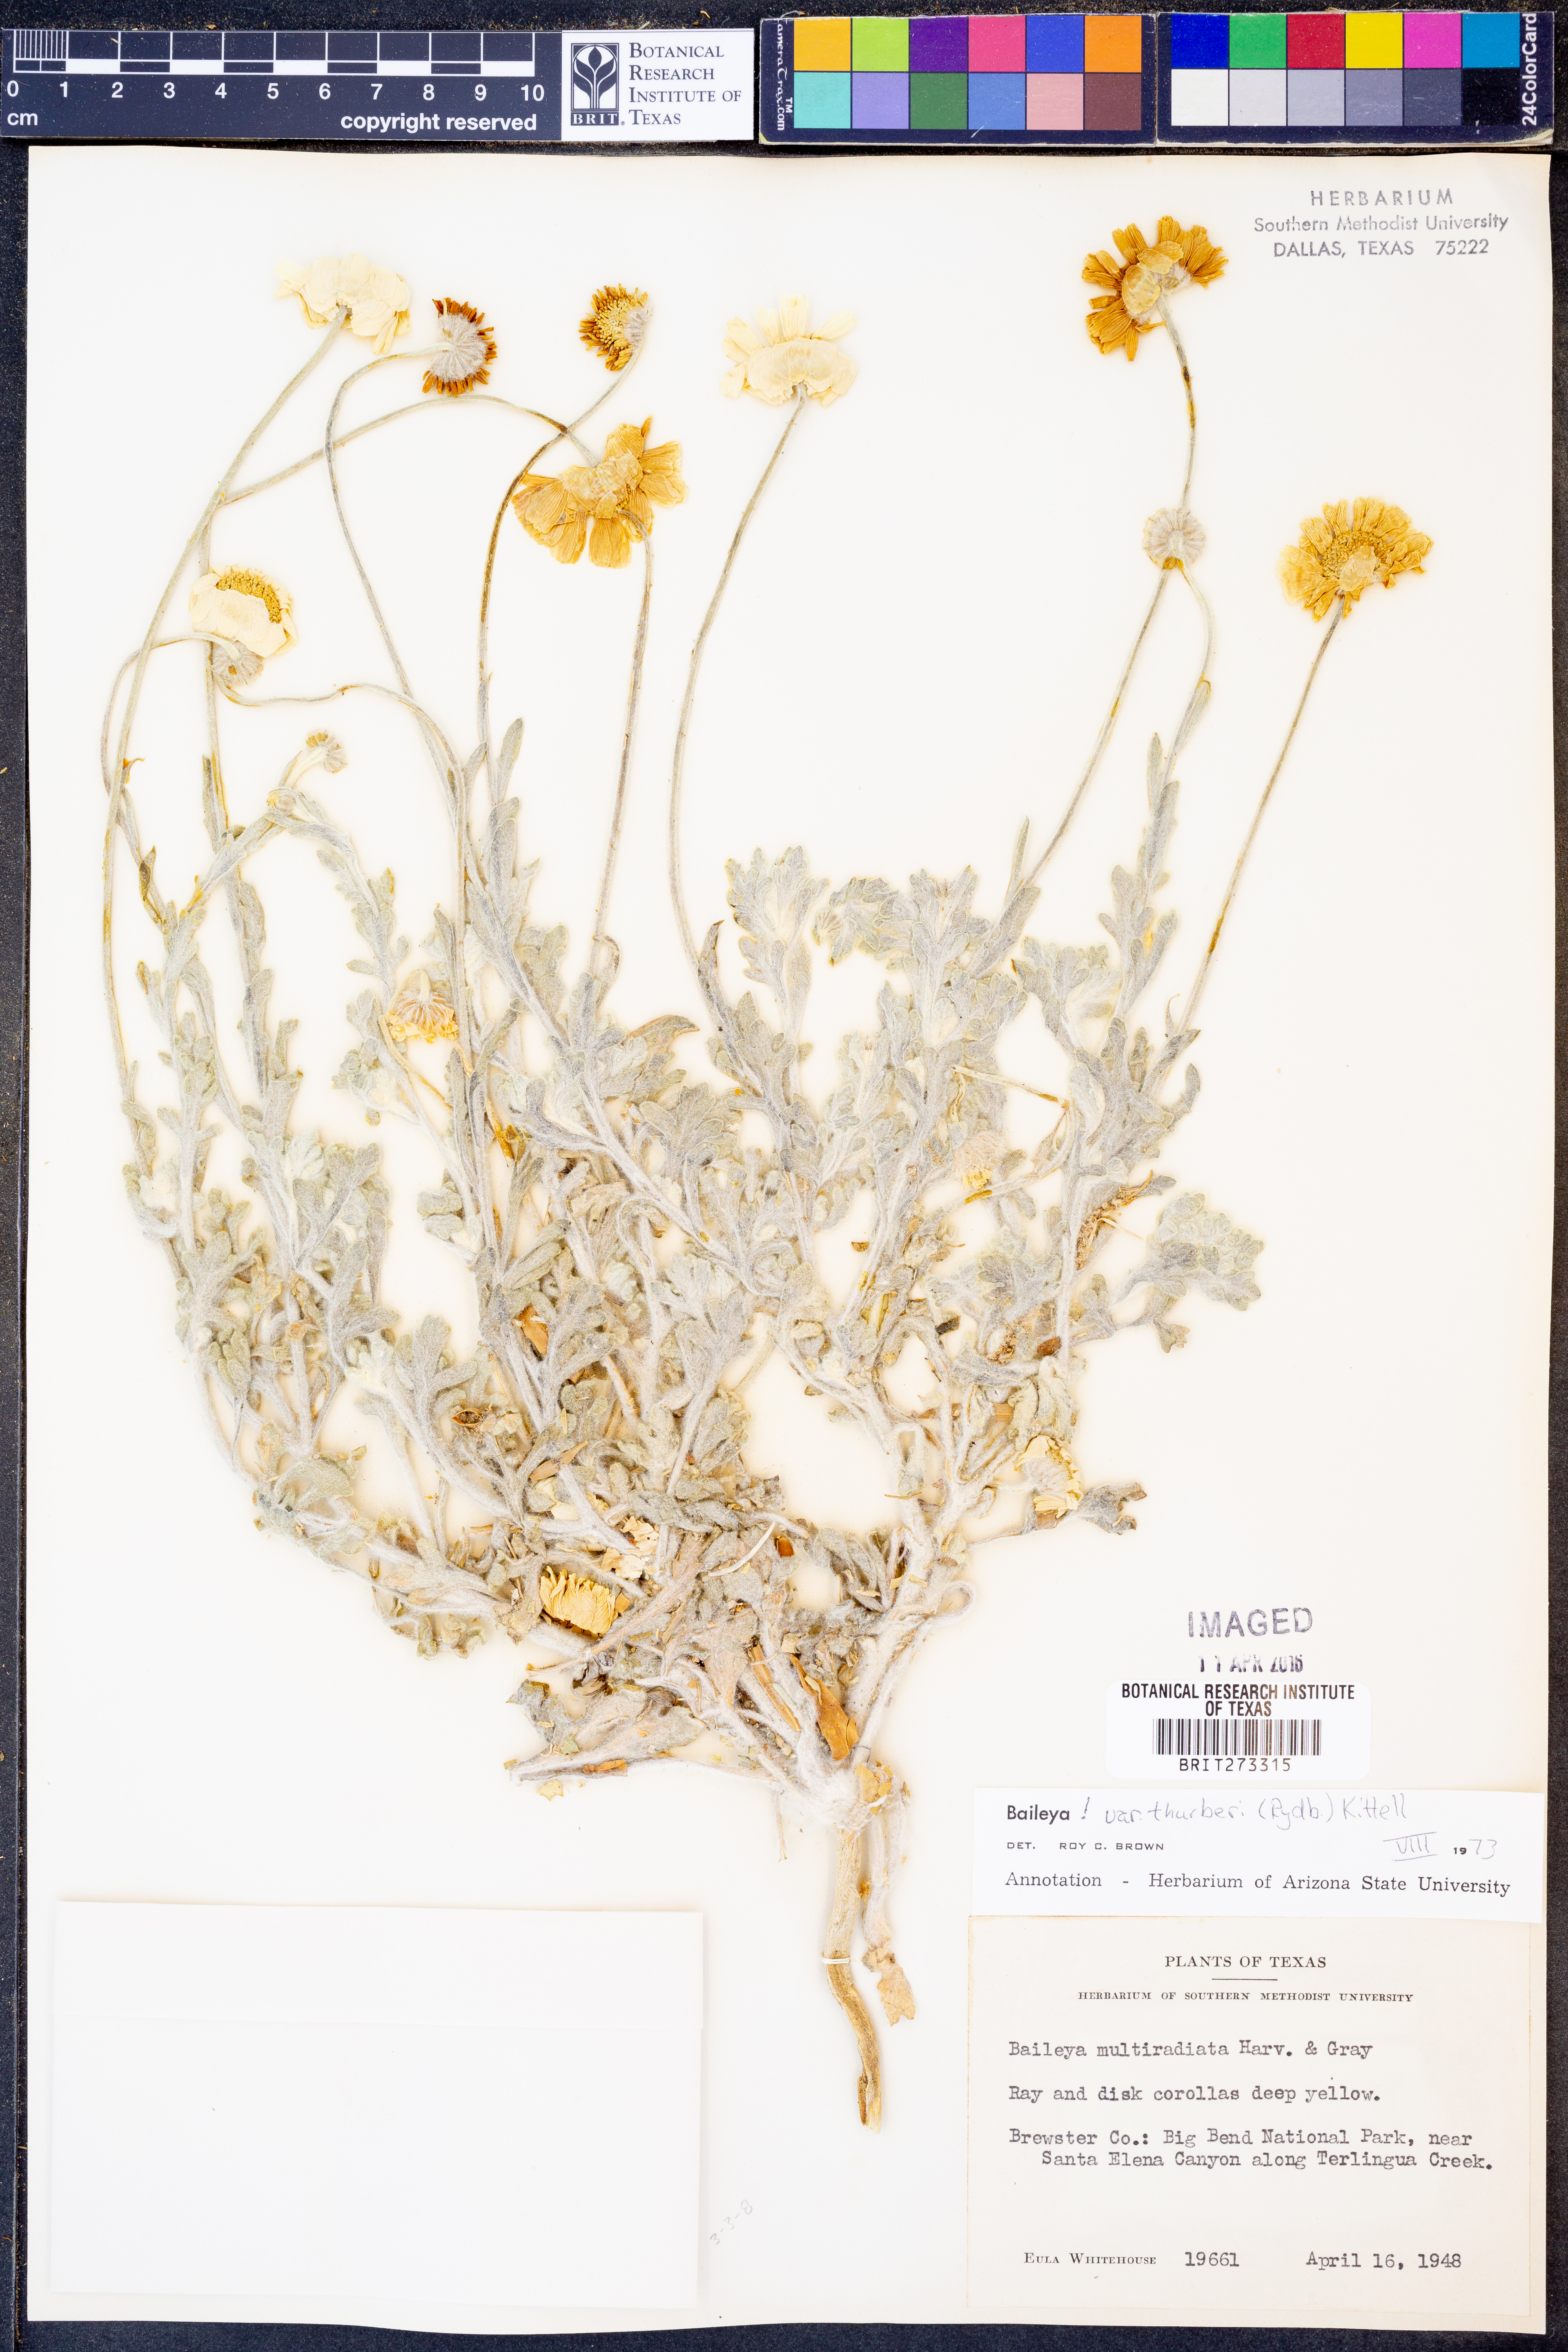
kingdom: Plantae
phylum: Tracheophyta
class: Magnoliopsida
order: Asterales
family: Asteraceae
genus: Baileya
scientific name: Baileya multiradiata
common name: Desert-marigold
